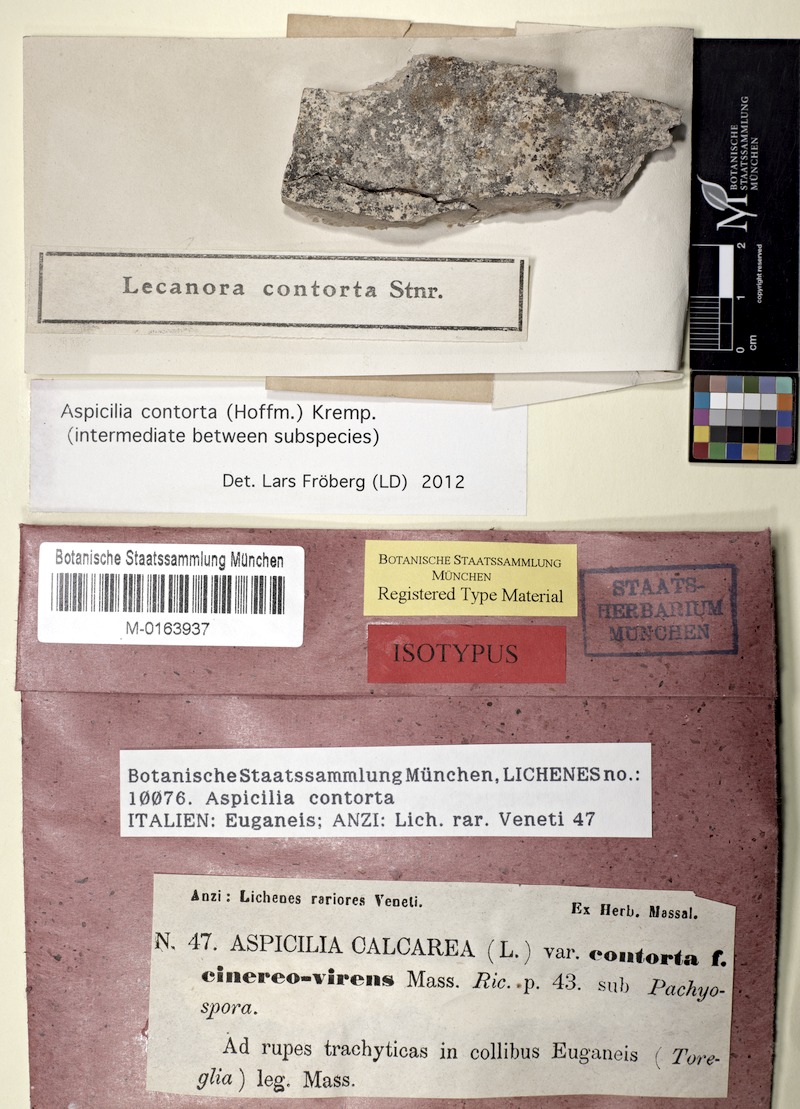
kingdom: Fungi
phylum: Ascomycota
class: Lecanoromycetes
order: Pertusariales
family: Megasporaceae
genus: Circinaria
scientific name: Circinaria contorta
